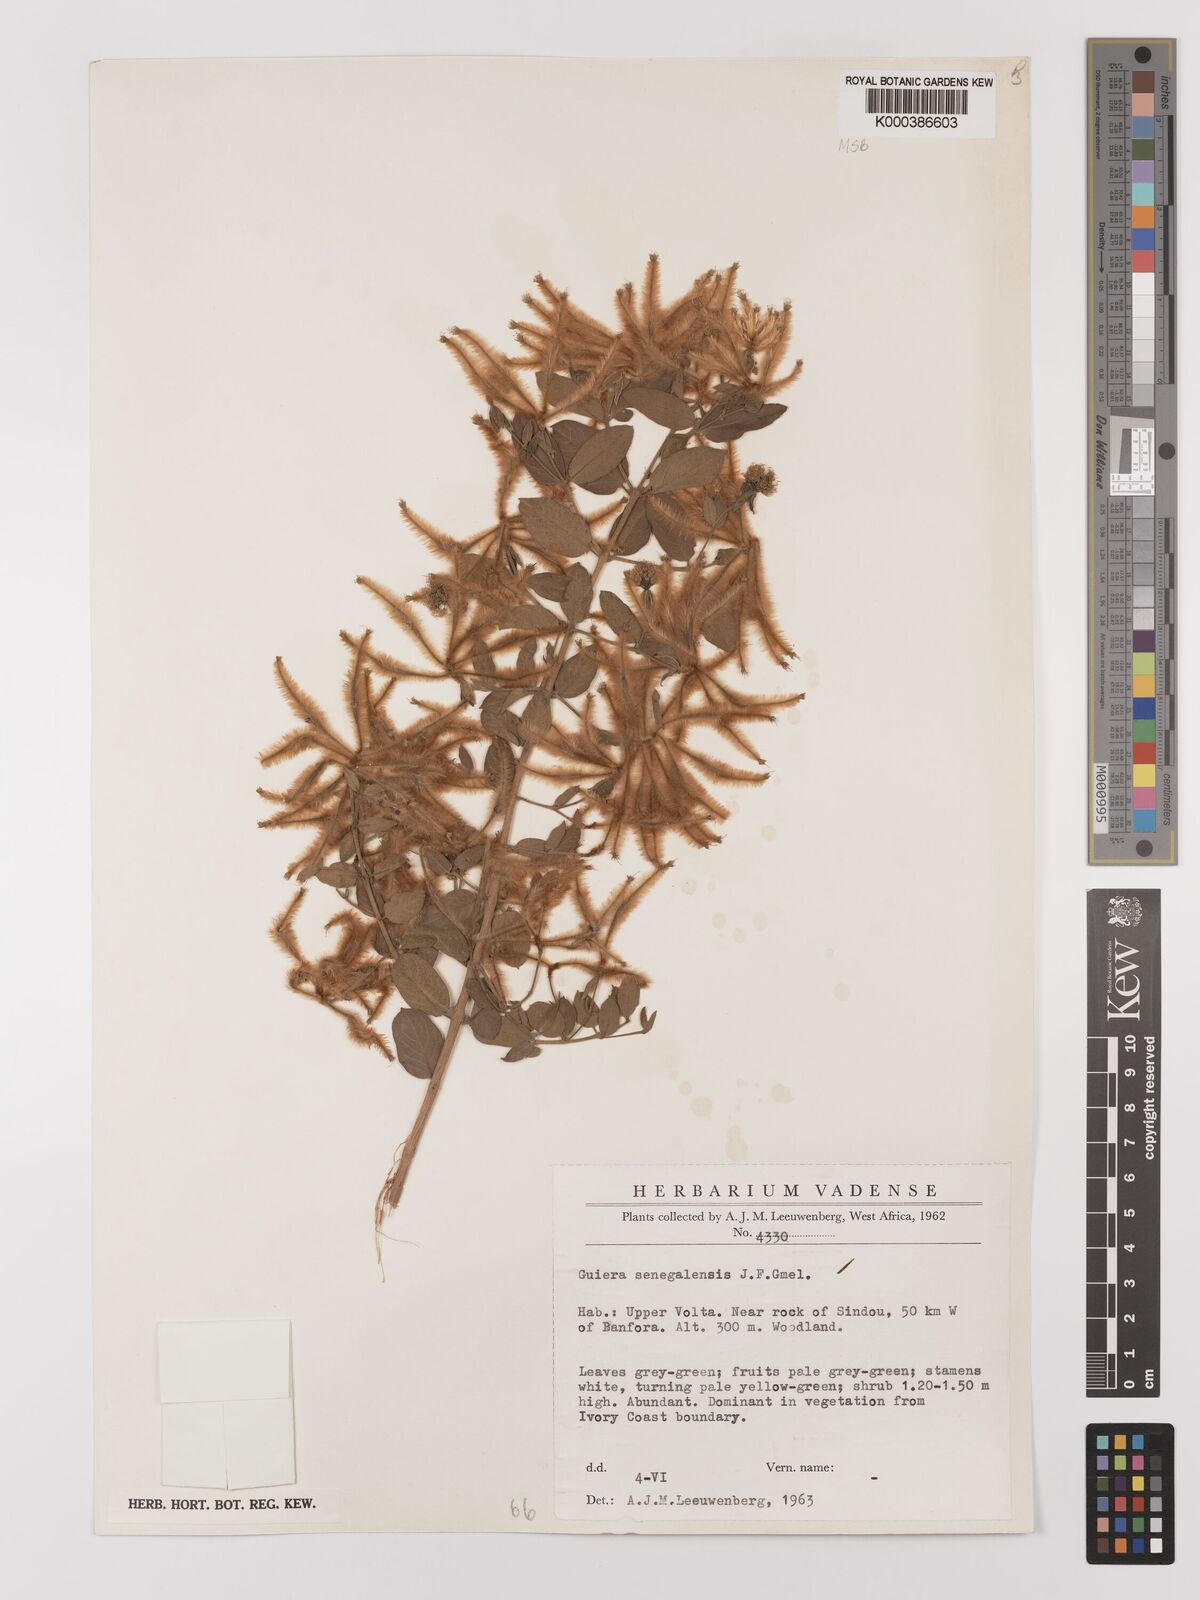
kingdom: Plantae
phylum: Tracheophyta
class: Magnoliopsida
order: Myrtales
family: Combretaceae
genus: Guiera
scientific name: Guiera senegalensis
